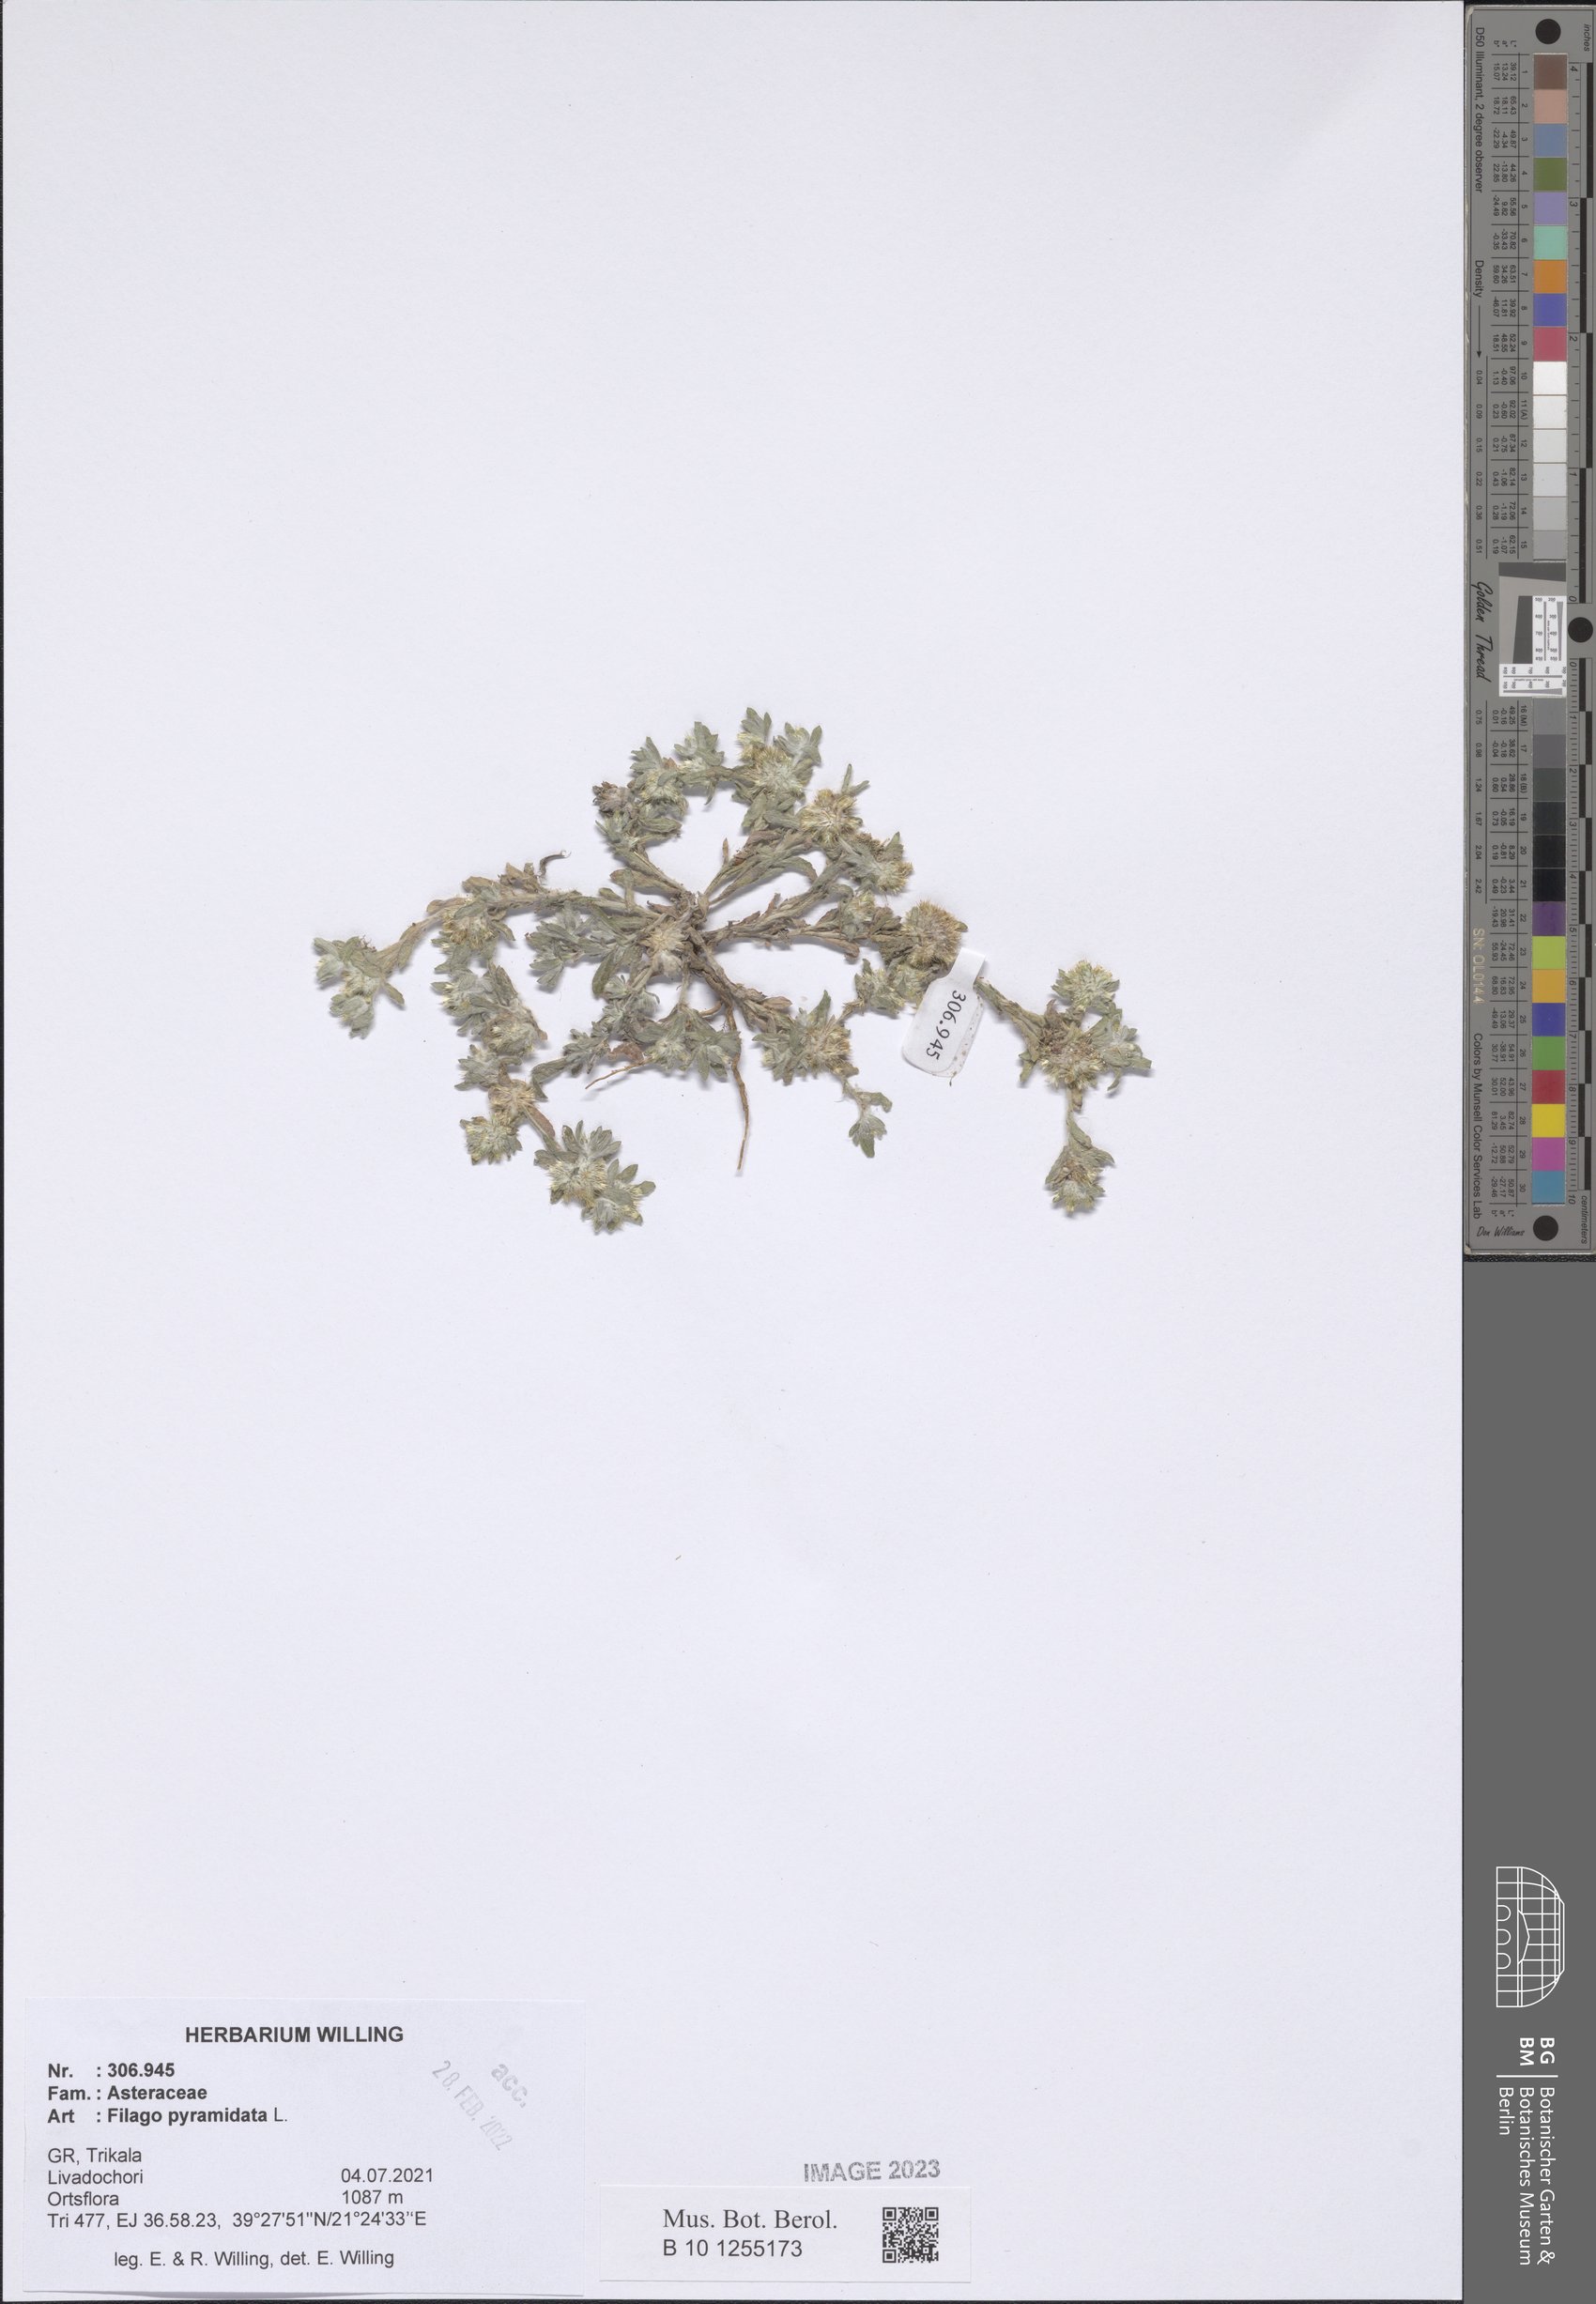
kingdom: Plantae
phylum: Tracheophyta
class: Magnoliopsida
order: Asterales
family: Asteraceae
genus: Filago
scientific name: Filago pyramidata
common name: Broad-leaved cudweed
